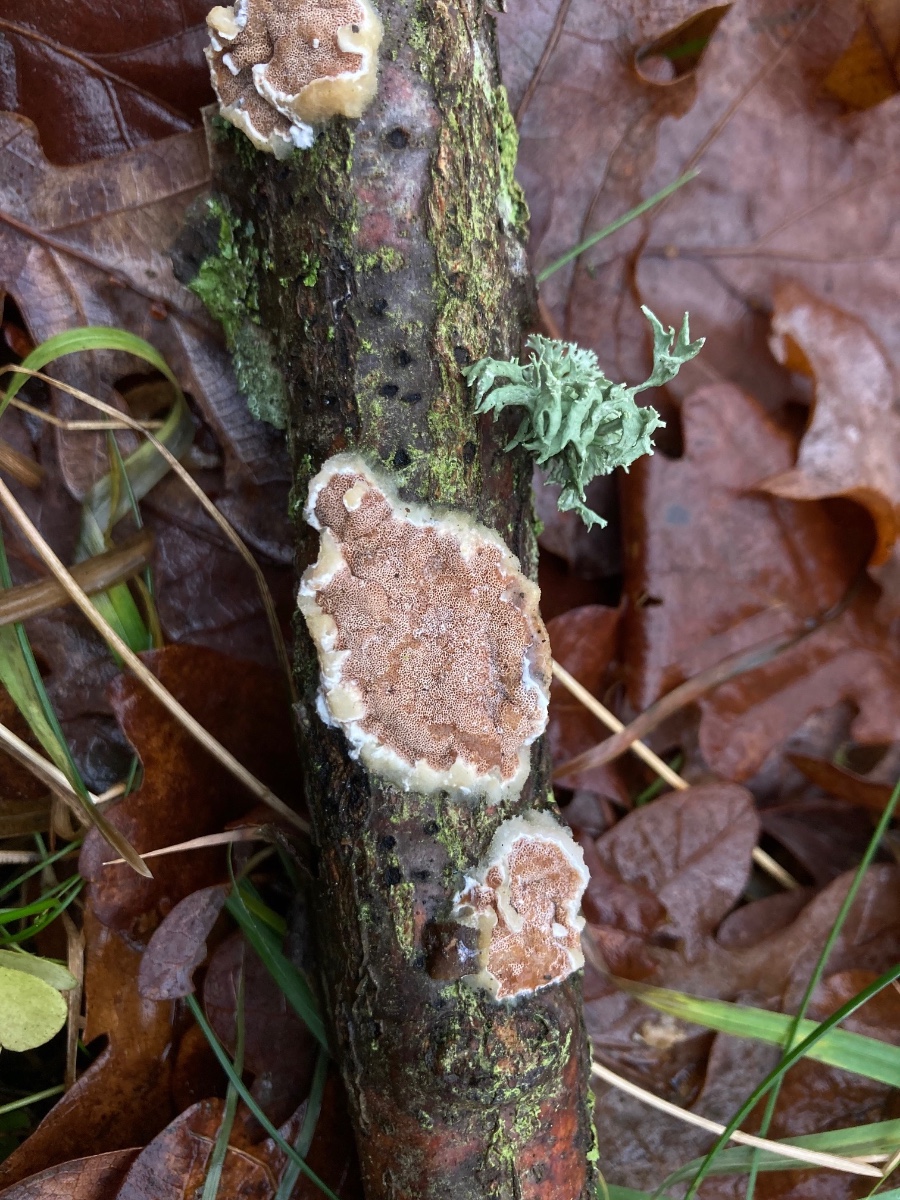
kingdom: Fungi
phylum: Basidiomycota
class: Agaricomycetes
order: Polyporales
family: Irpicaceae
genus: Vitreoporus
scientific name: Vitreoporus dichrous
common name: tofarvet foldporesvamp
